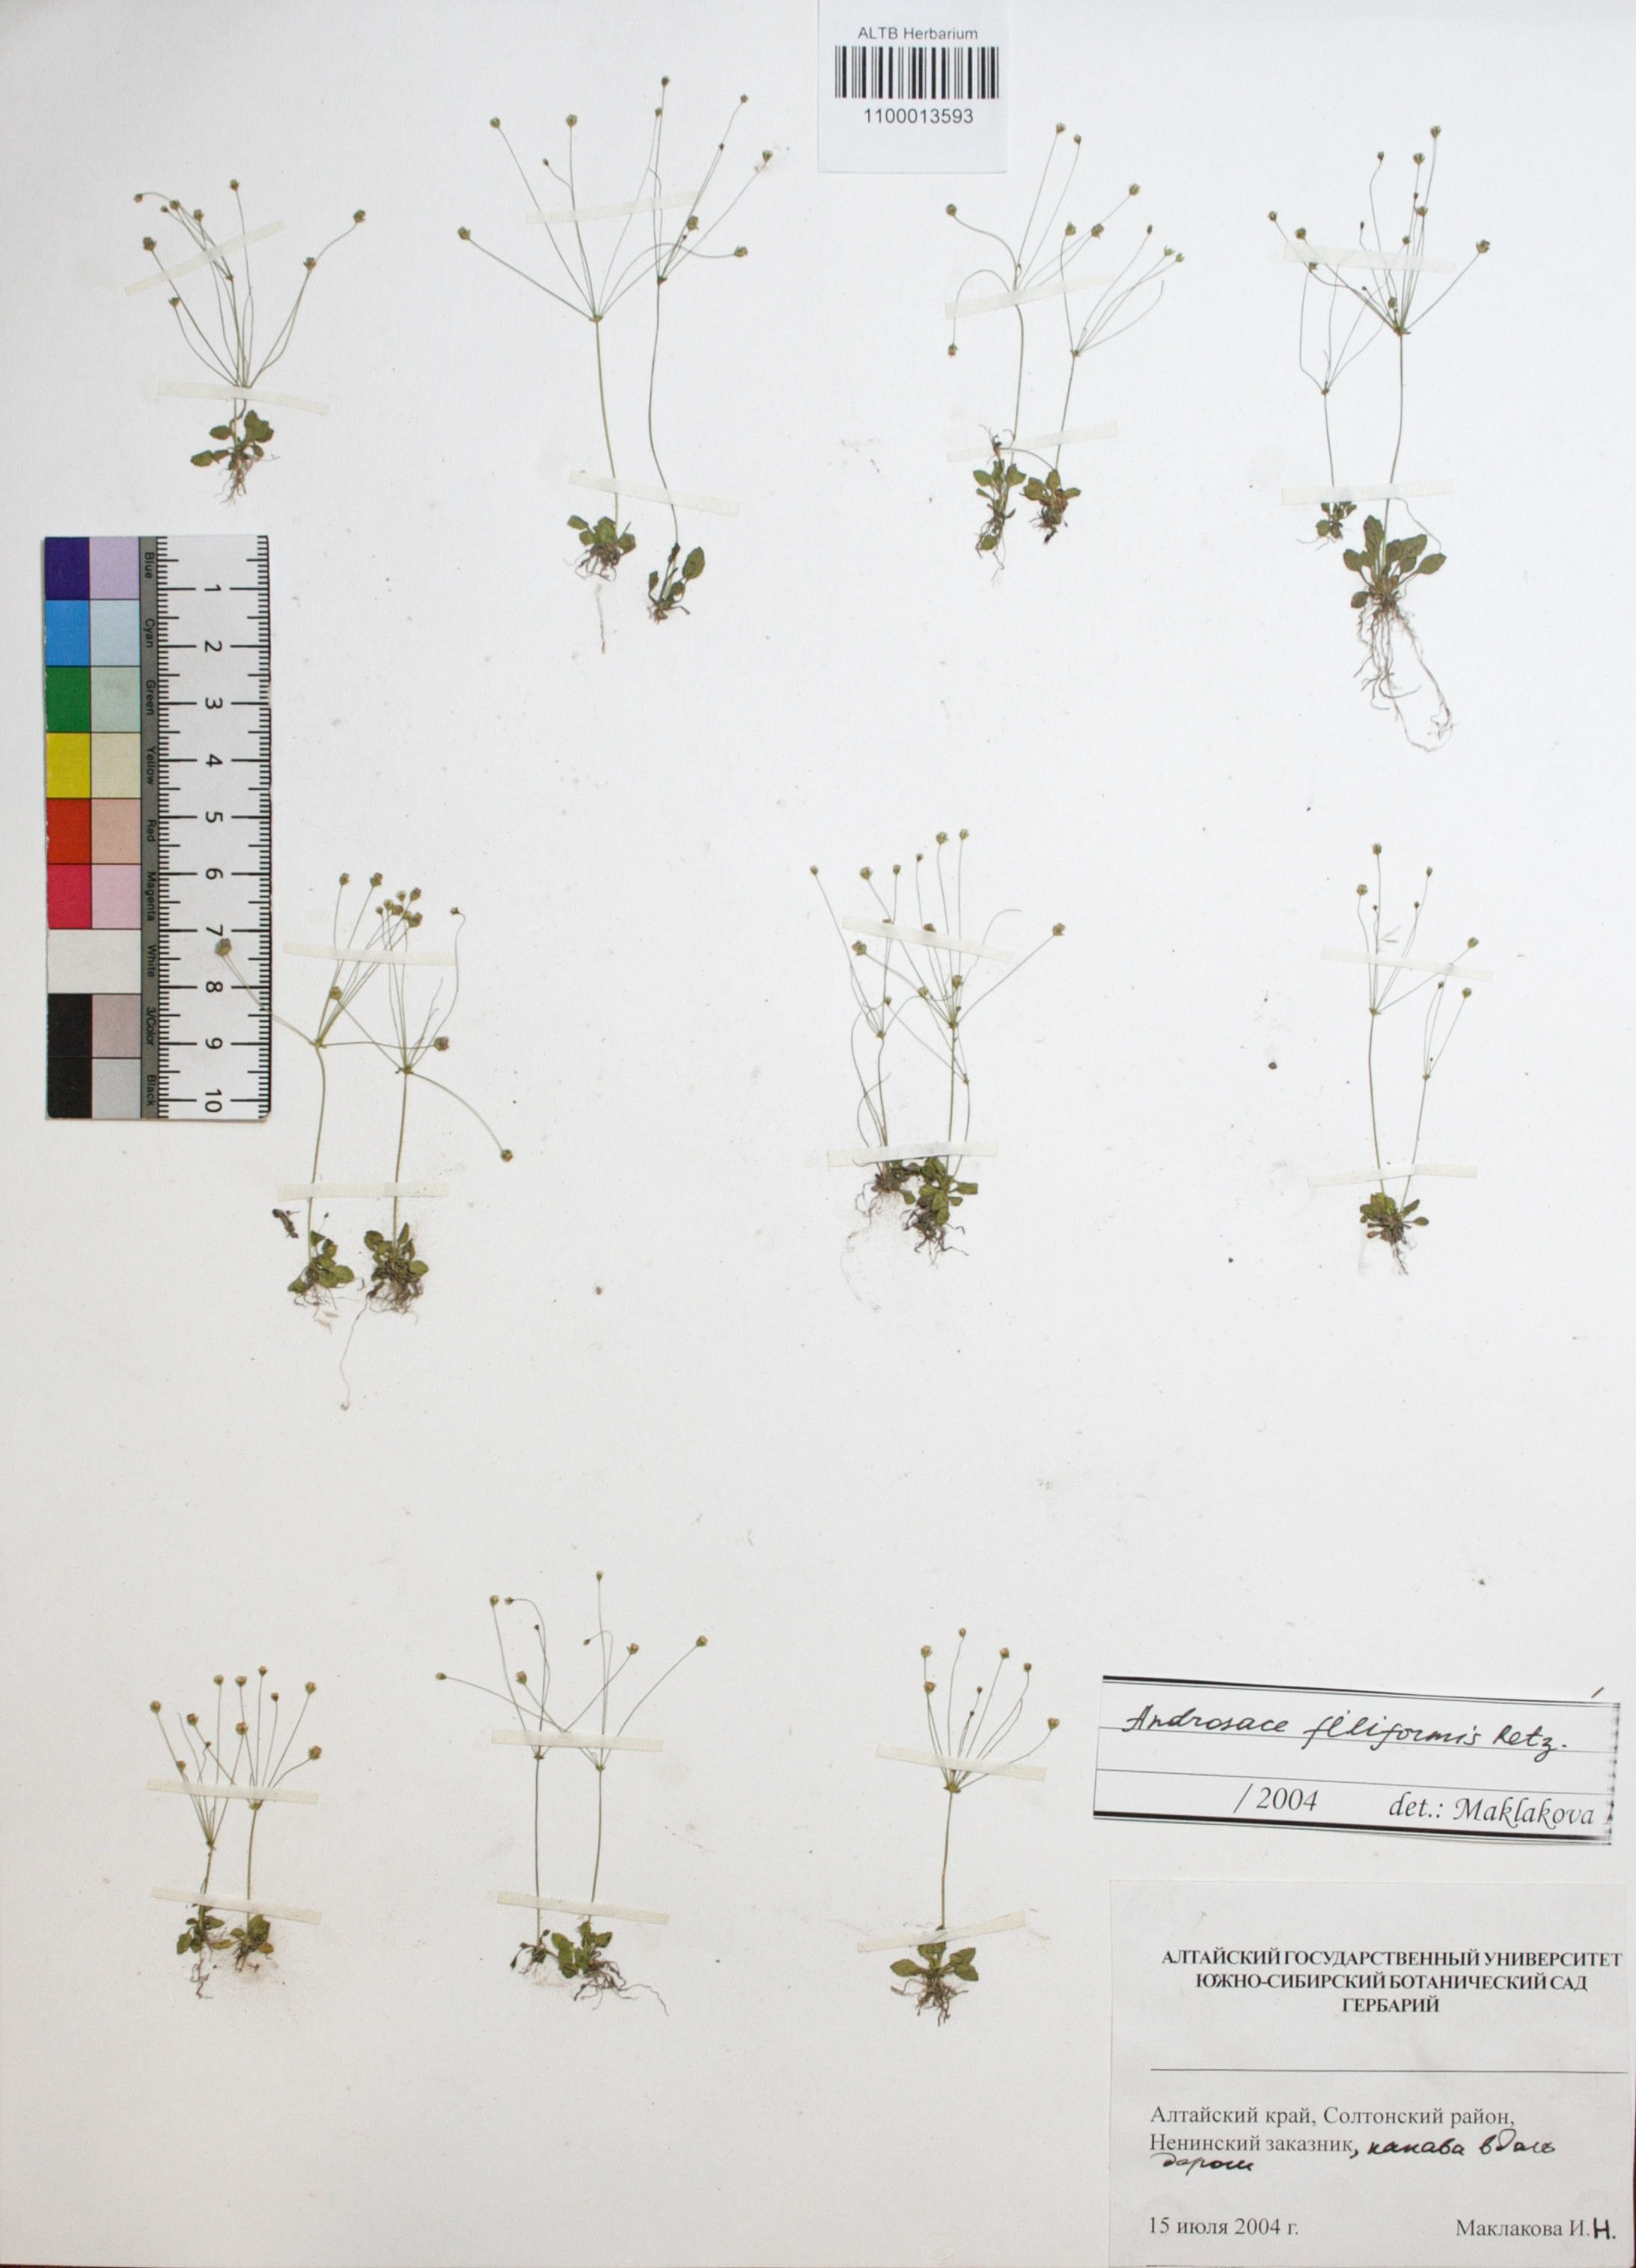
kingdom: Plantae
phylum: Tracheophyta
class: Magnoliopsida
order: Ericales
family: Primulaceae
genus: Androsace
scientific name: Androsace filiformis
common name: Filiform rock jasmine
